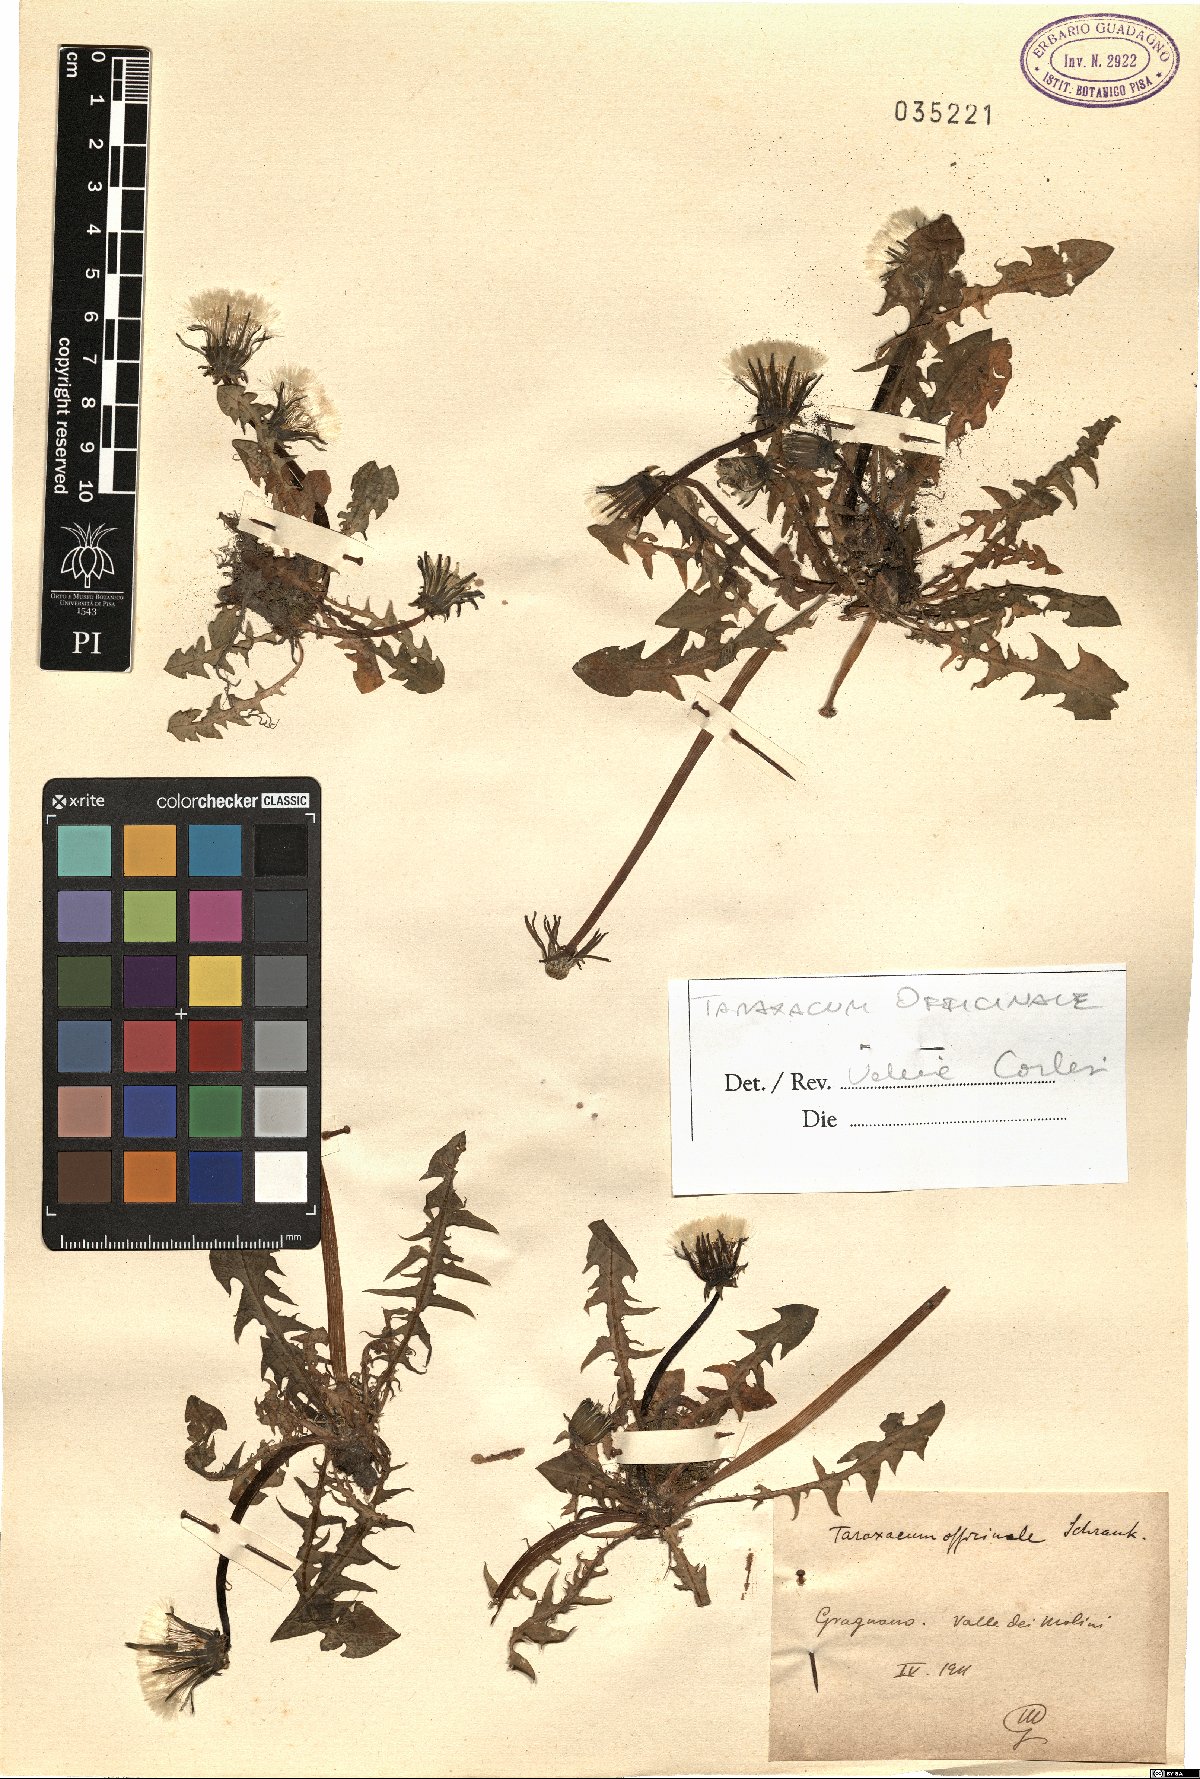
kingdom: Plantae
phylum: Tracheophyta
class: Magnoliopsida
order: Asterales
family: Asteraceae
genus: Taraxacum
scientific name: Taraxacum officinale
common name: Common dandelion
